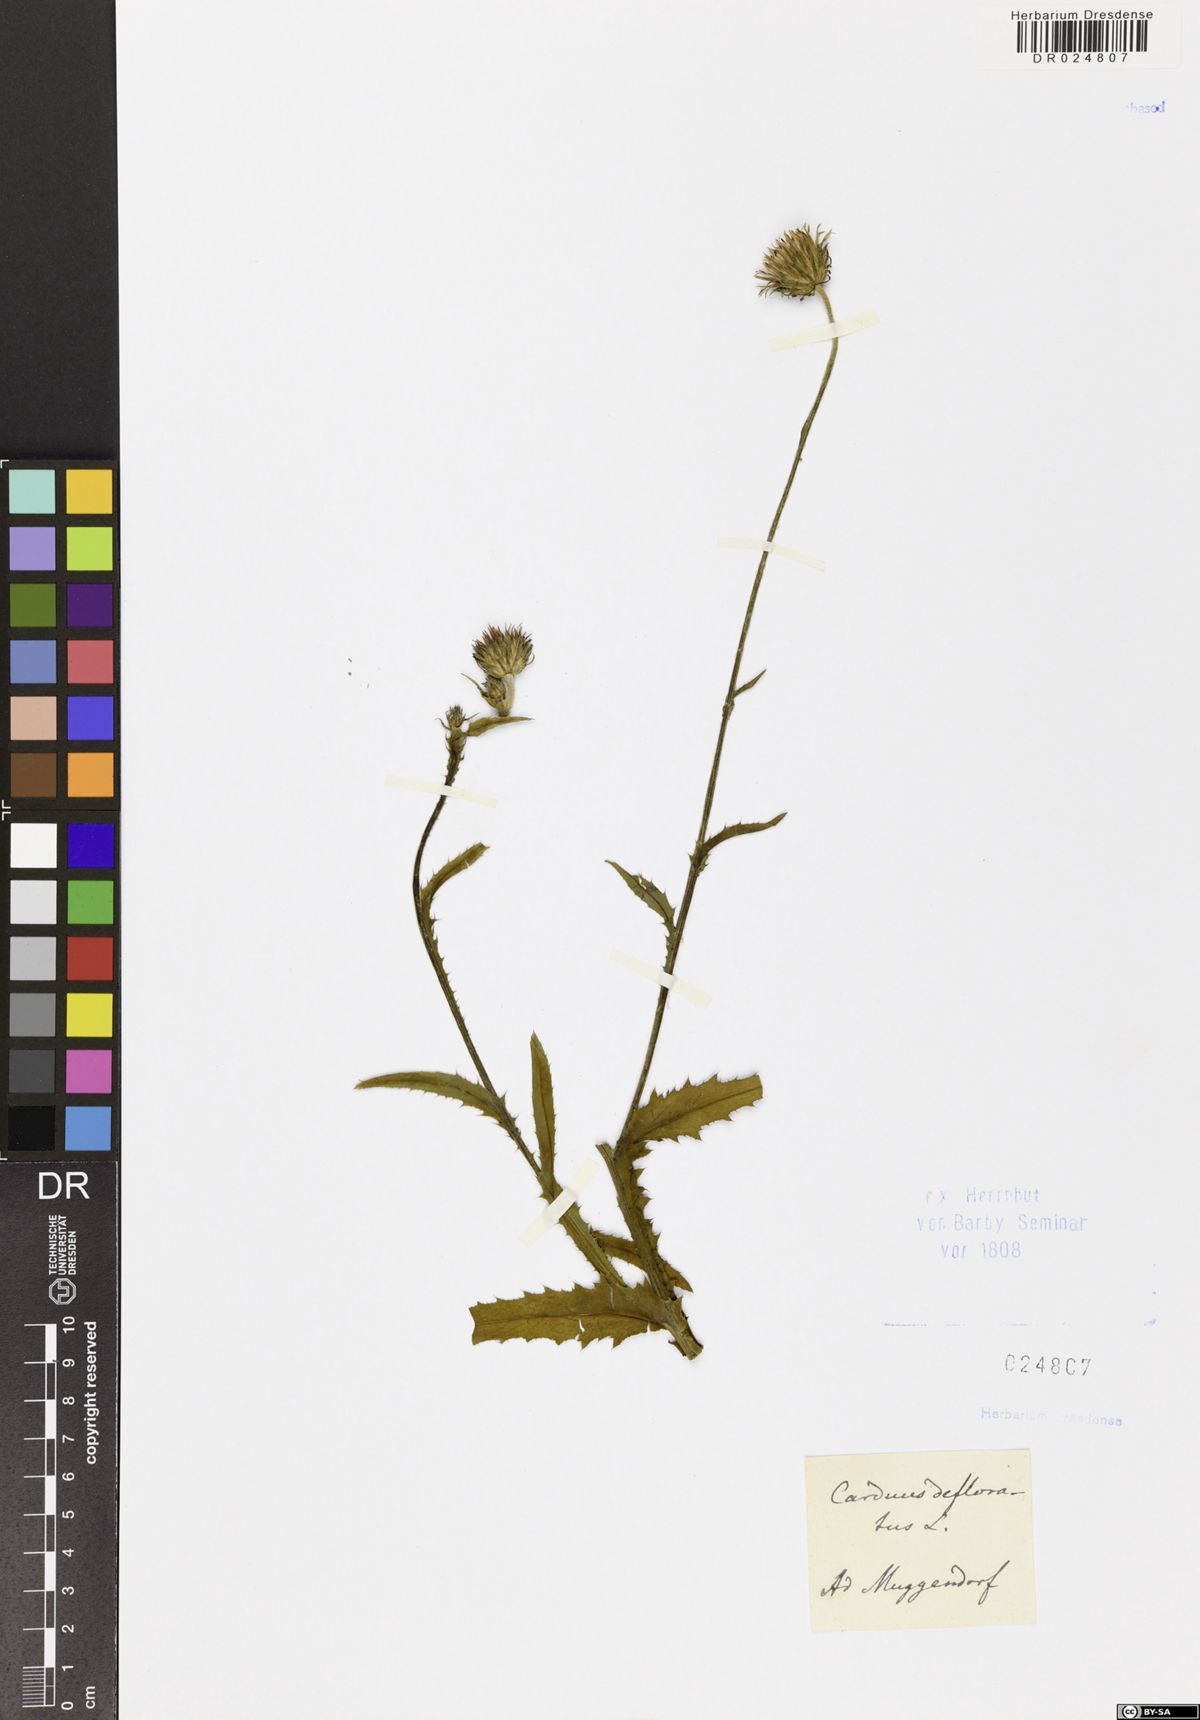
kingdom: Plantae
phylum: Tracheophyta
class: Magnoliopsida
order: Asterales
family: Asteraceae
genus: Carduus
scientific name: Carduus defloratus
